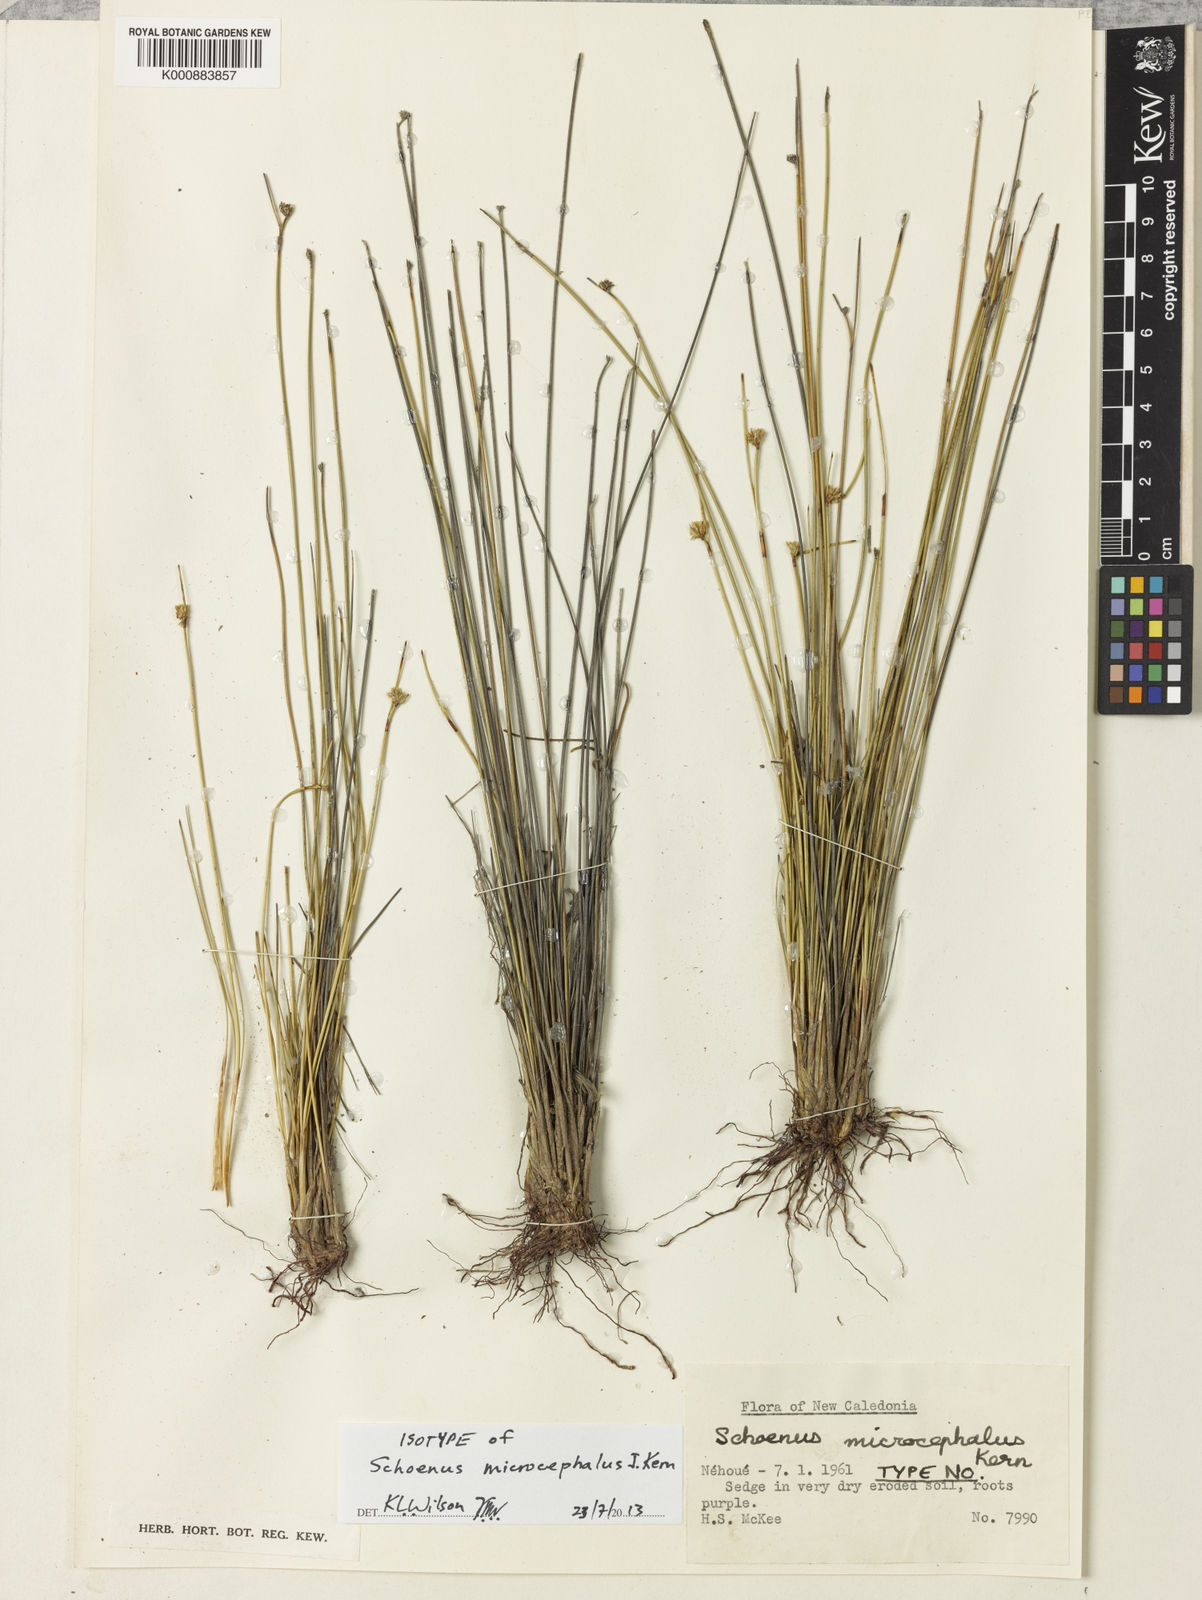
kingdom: Plantae
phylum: Tracheophyta
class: Liliopsida
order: Poales
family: Cyperaceae
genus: Schoenus
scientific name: Schoenus microcephalus
